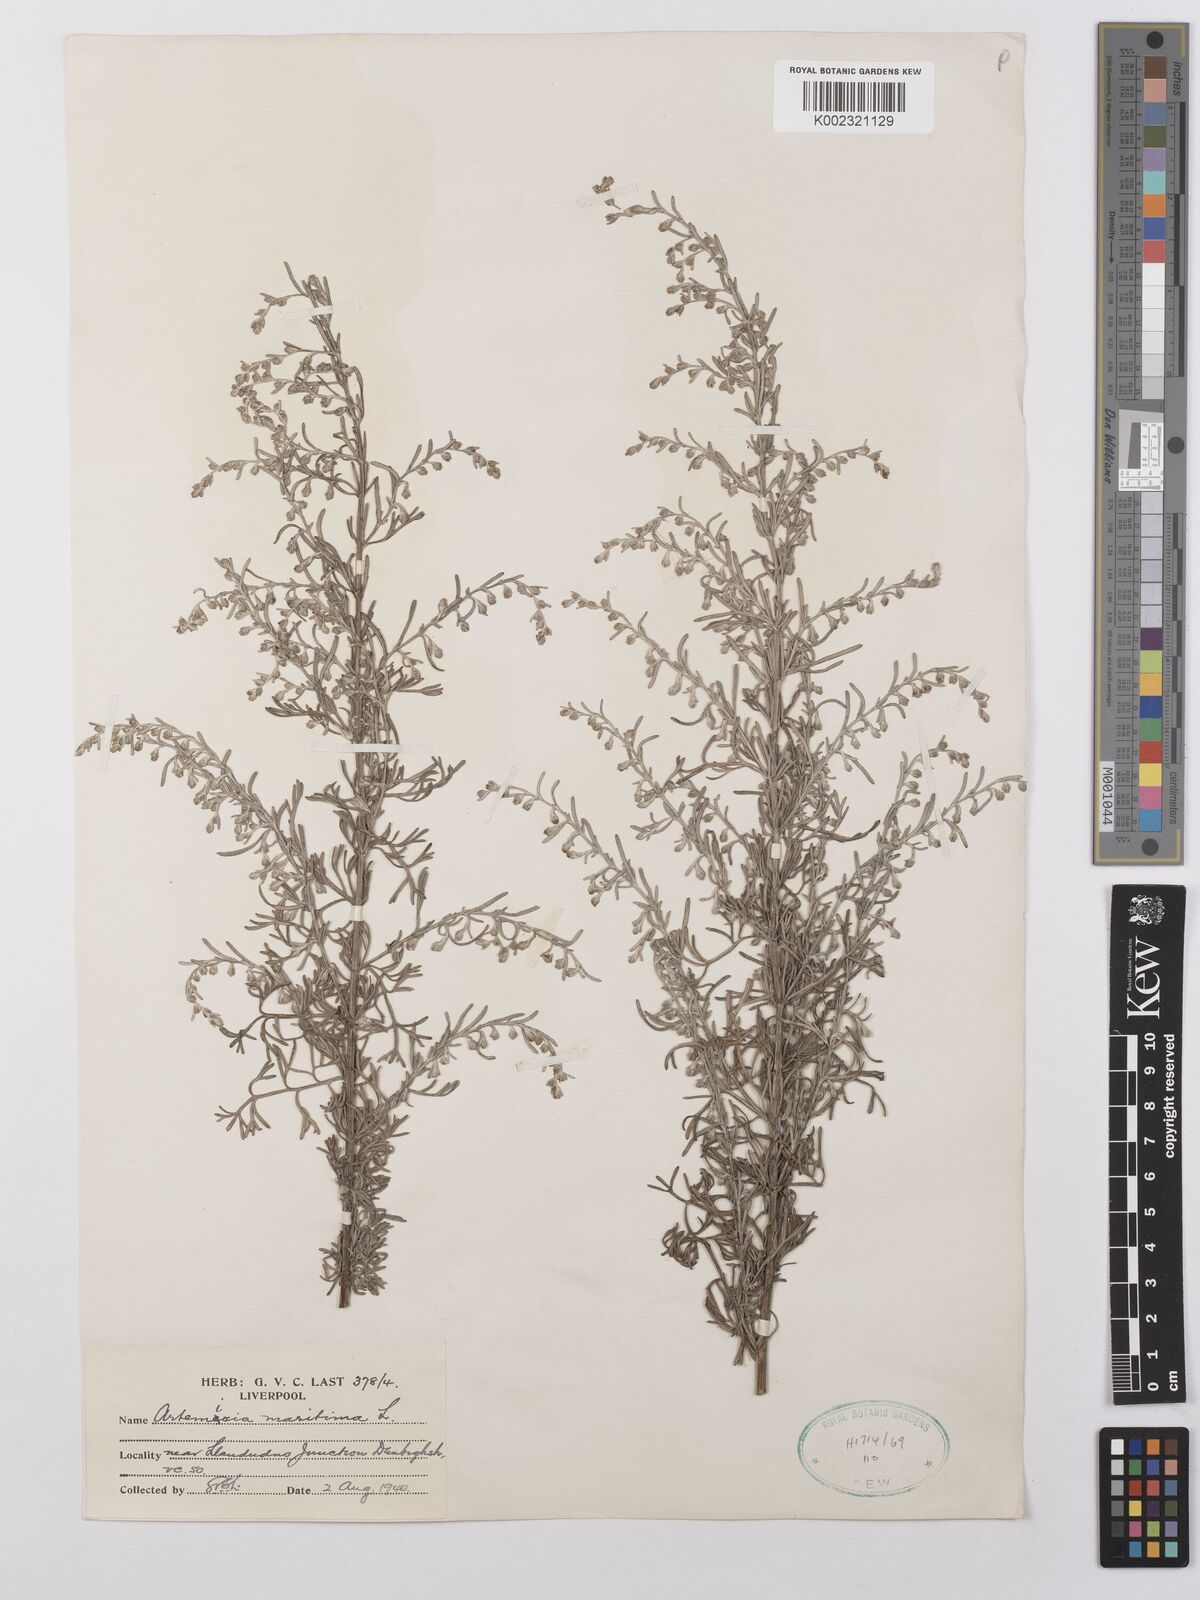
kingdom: Plantae
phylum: Tracheophyta
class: Magnoliopsida
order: Asterales
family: Asteraceae
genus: Artemisia
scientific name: Artemisia maritima
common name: Wormseed
